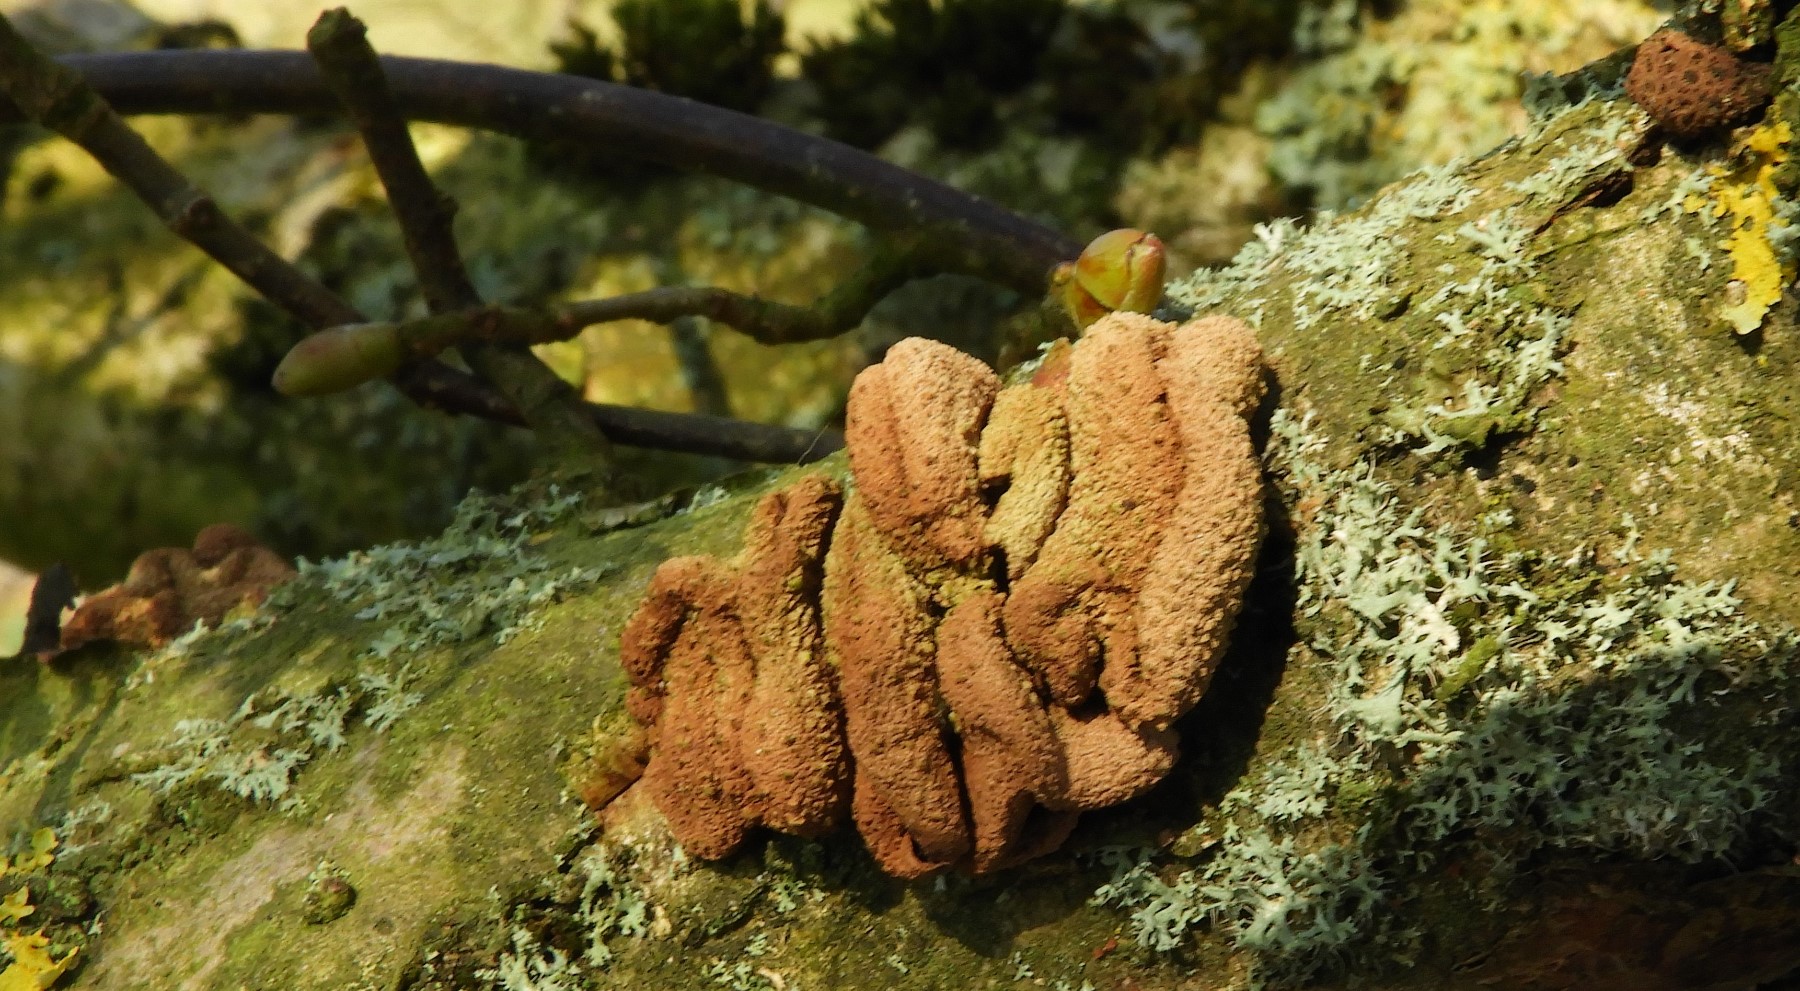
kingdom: Fungi
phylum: Ascomycota
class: Leotiomycetes
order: Helotiales
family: Cenangiaceae
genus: Encoelia
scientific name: Encoelia furfuracea
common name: hassel-læderskive
